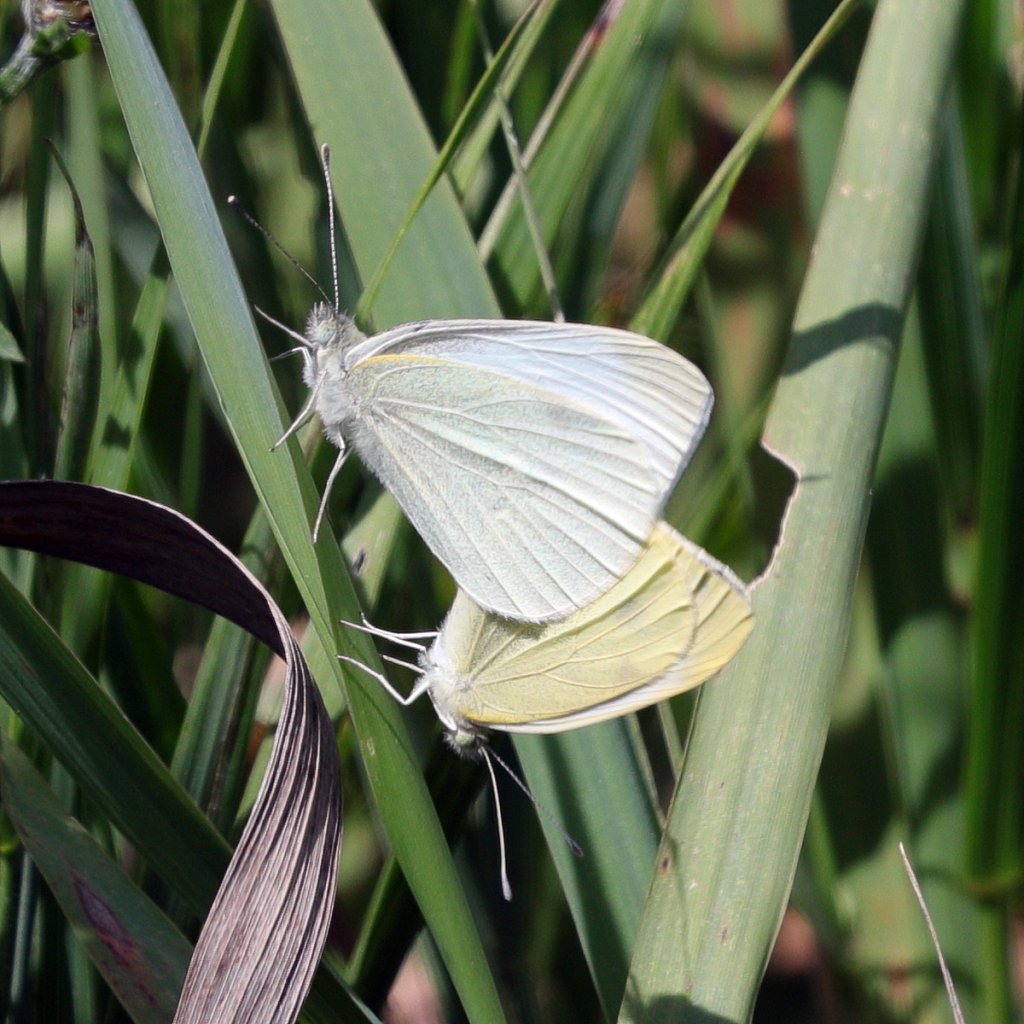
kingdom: Animalia
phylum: Arthropoda
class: Insecta
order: Lepidoptera
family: Pieridae
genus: Pieris
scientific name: Pieris rapae
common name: Cabbage White
